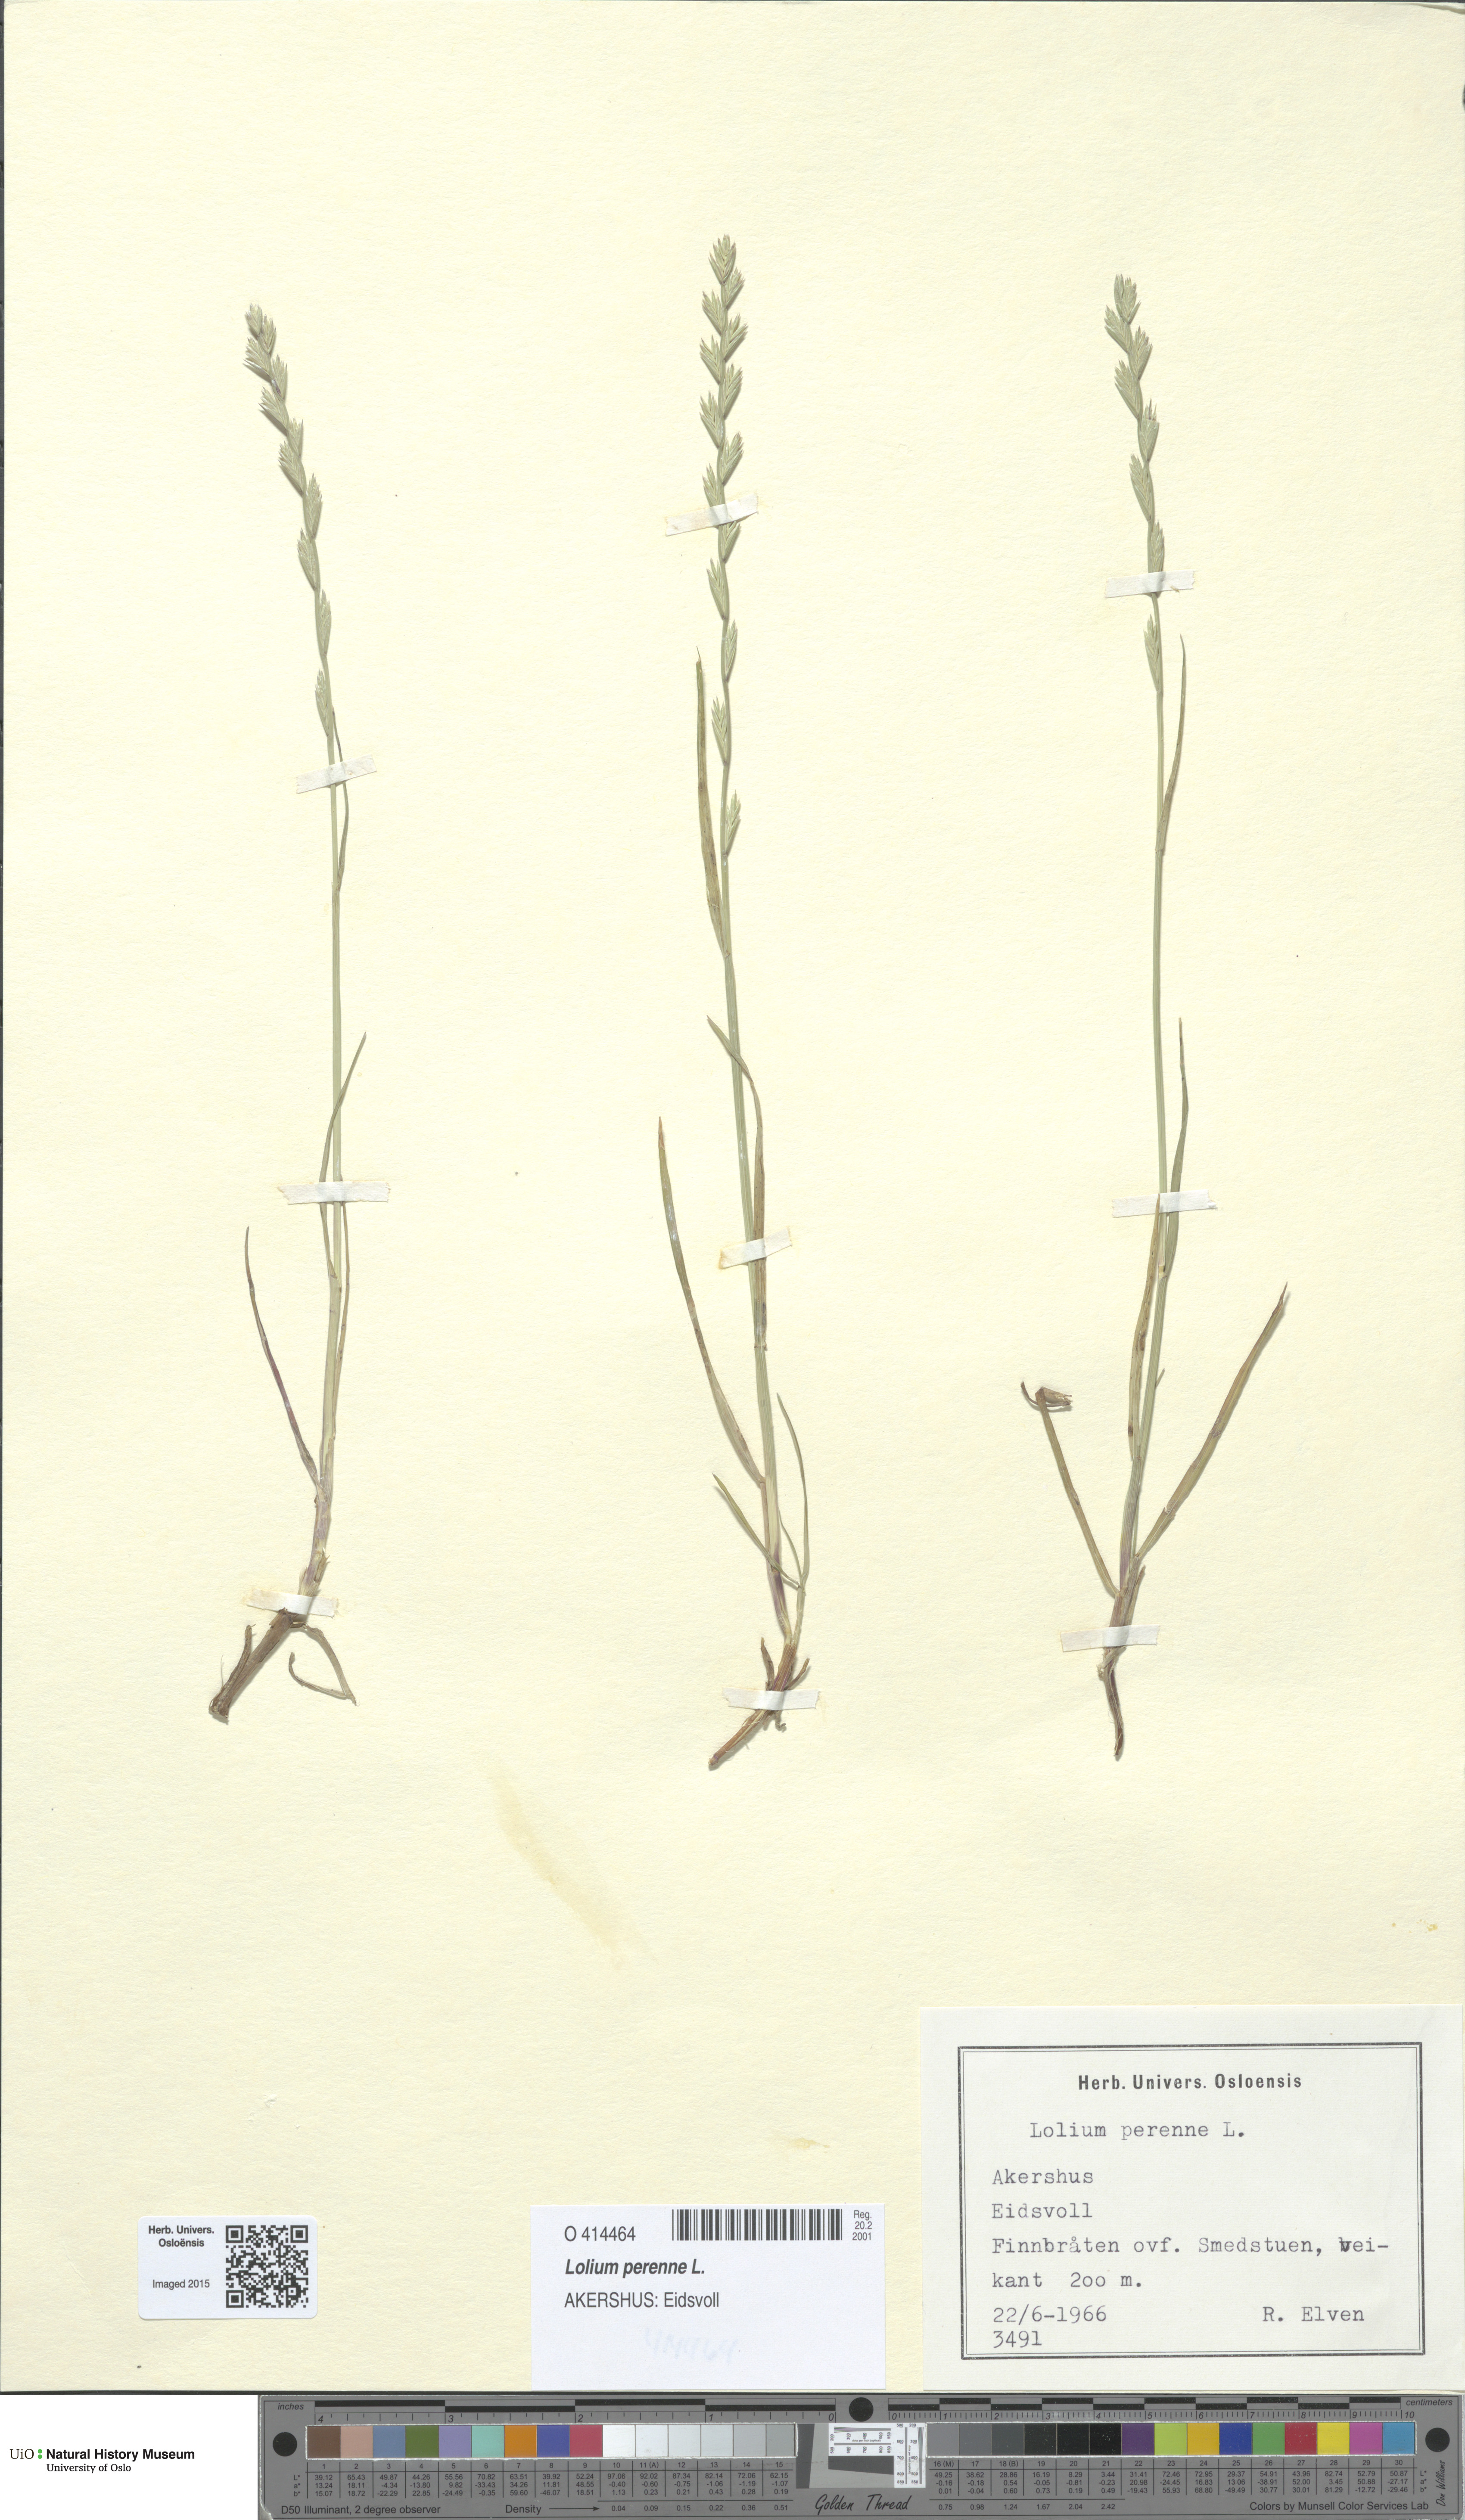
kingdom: Plantae
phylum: Tracheophyta
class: Liliopsida
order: Poales
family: Poaceae
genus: Lolium
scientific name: Lolium perenne
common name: Perennial ryegrass
